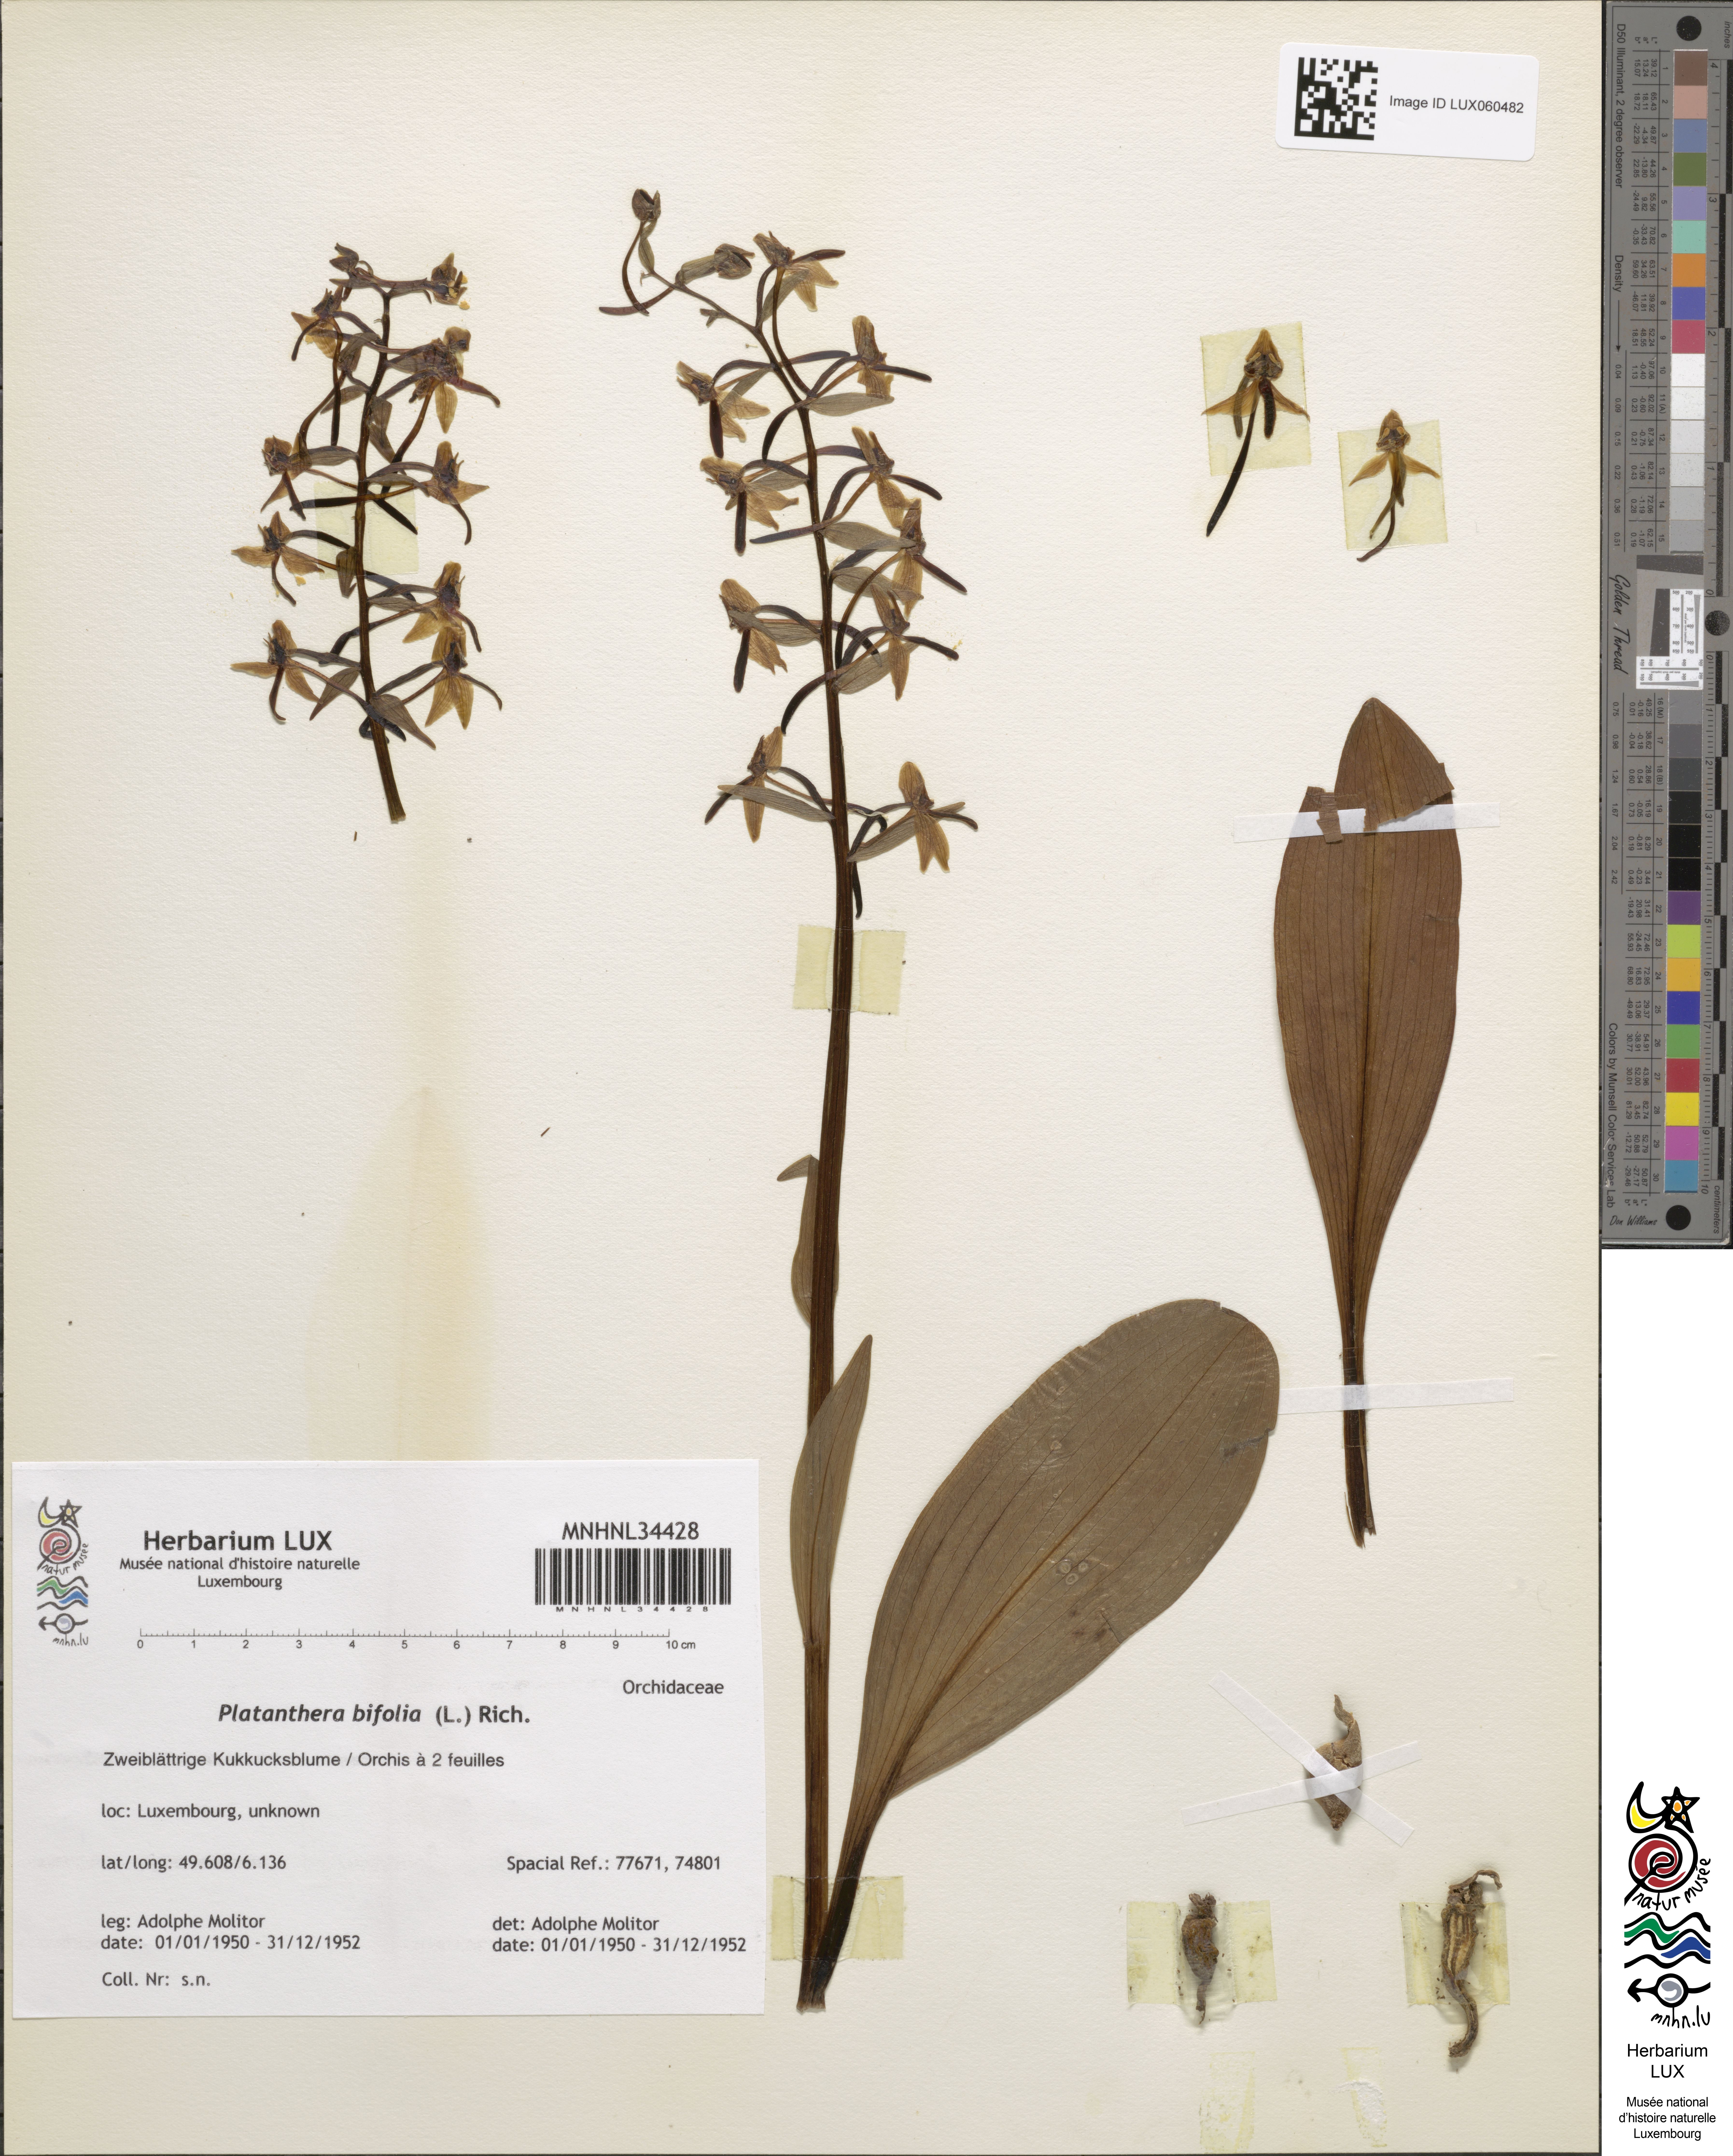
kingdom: Plantae
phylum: Tracheophyta
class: Liliopsida
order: Asparagales
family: Orchidaceae
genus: Platanthera
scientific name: Platanthera bifolia
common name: Lesser butterfly-orchid
